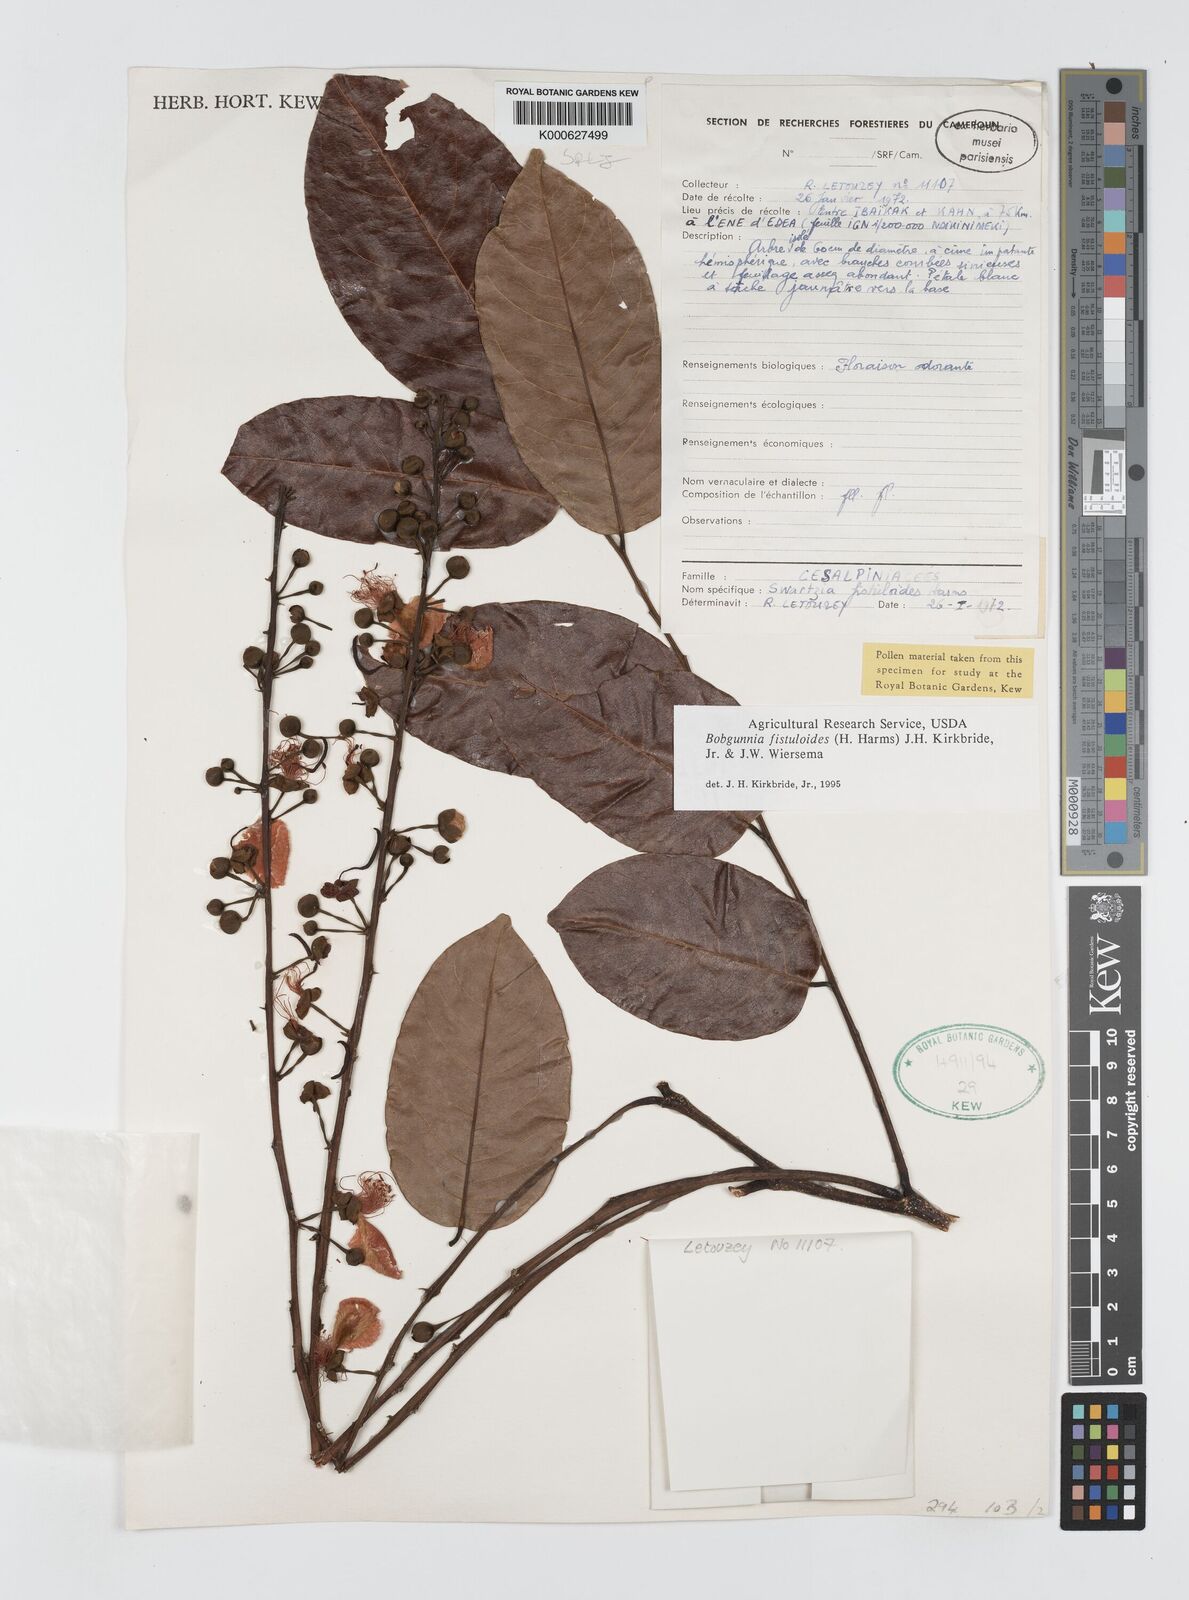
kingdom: Plantae
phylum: Tracheophyta
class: Magnoliopsida
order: Fabales
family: Fabaceae
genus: Bobgunnia
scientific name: Bobgunnia fistuloides
